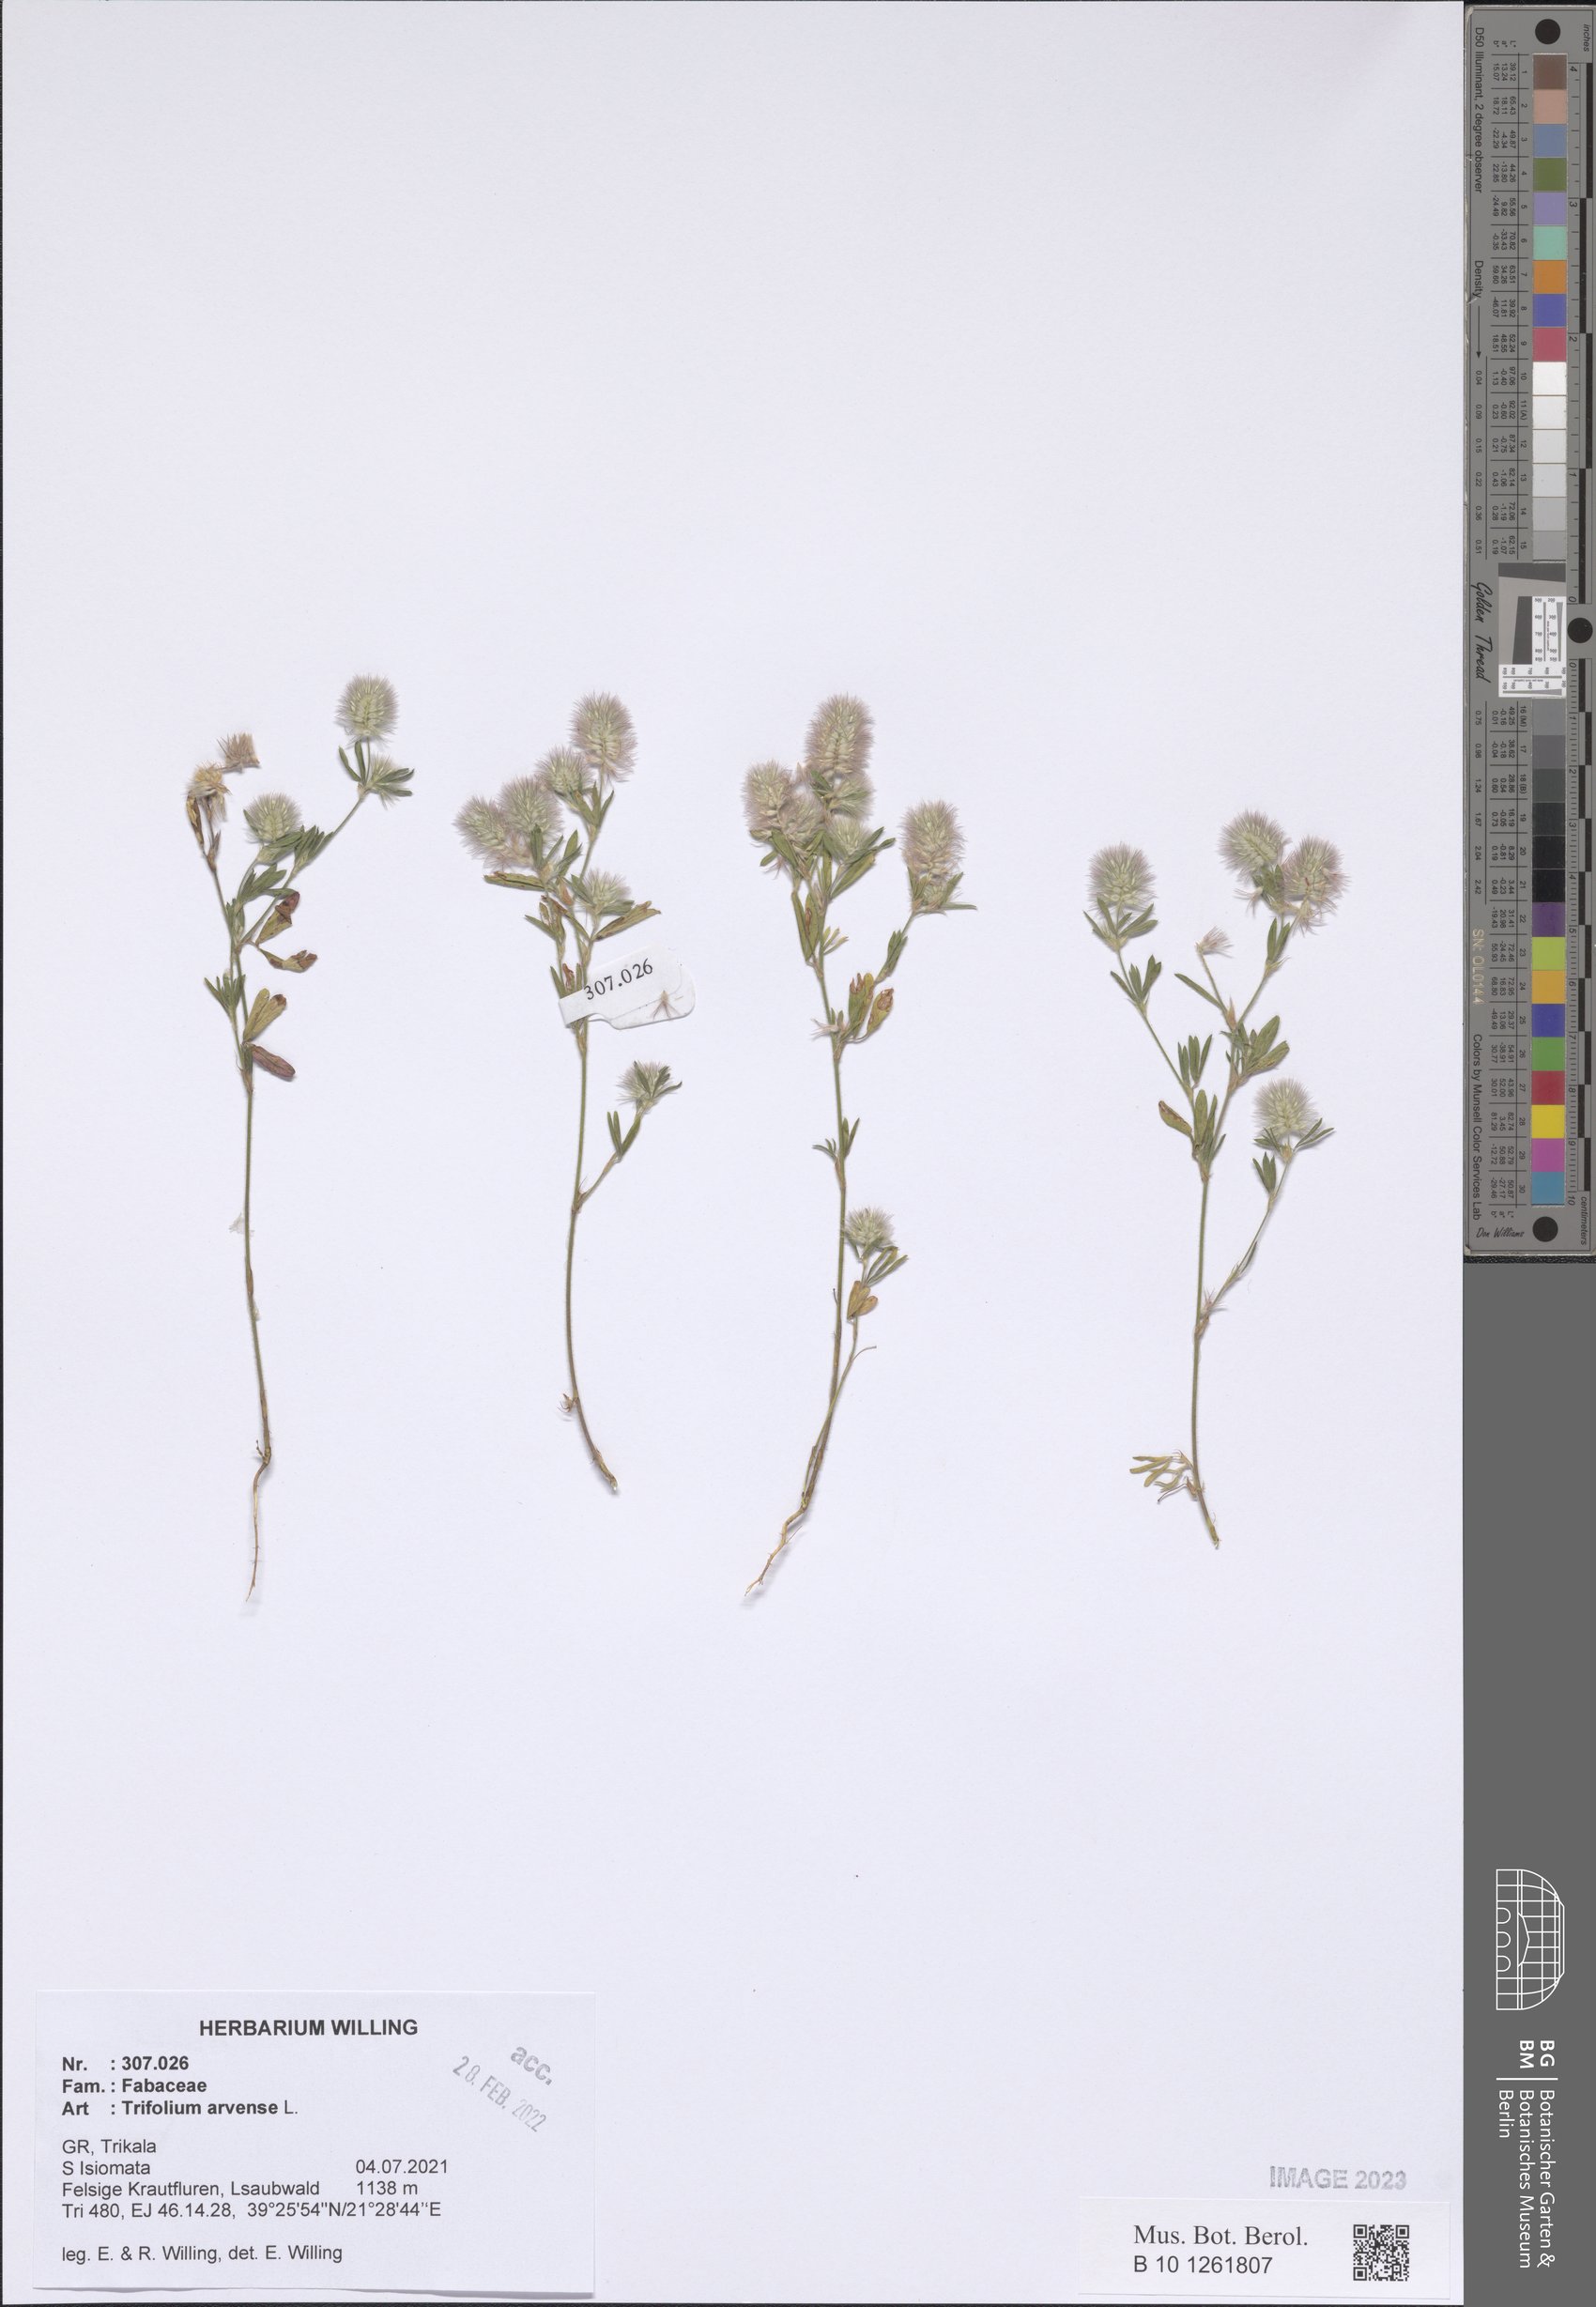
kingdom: Plantae
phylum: Tracheophyta
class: Magnoliopsida
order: Fabales
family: Fabaceae
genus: Trifolium
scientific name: Trifolium arvense
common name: Hare's-foot clover
